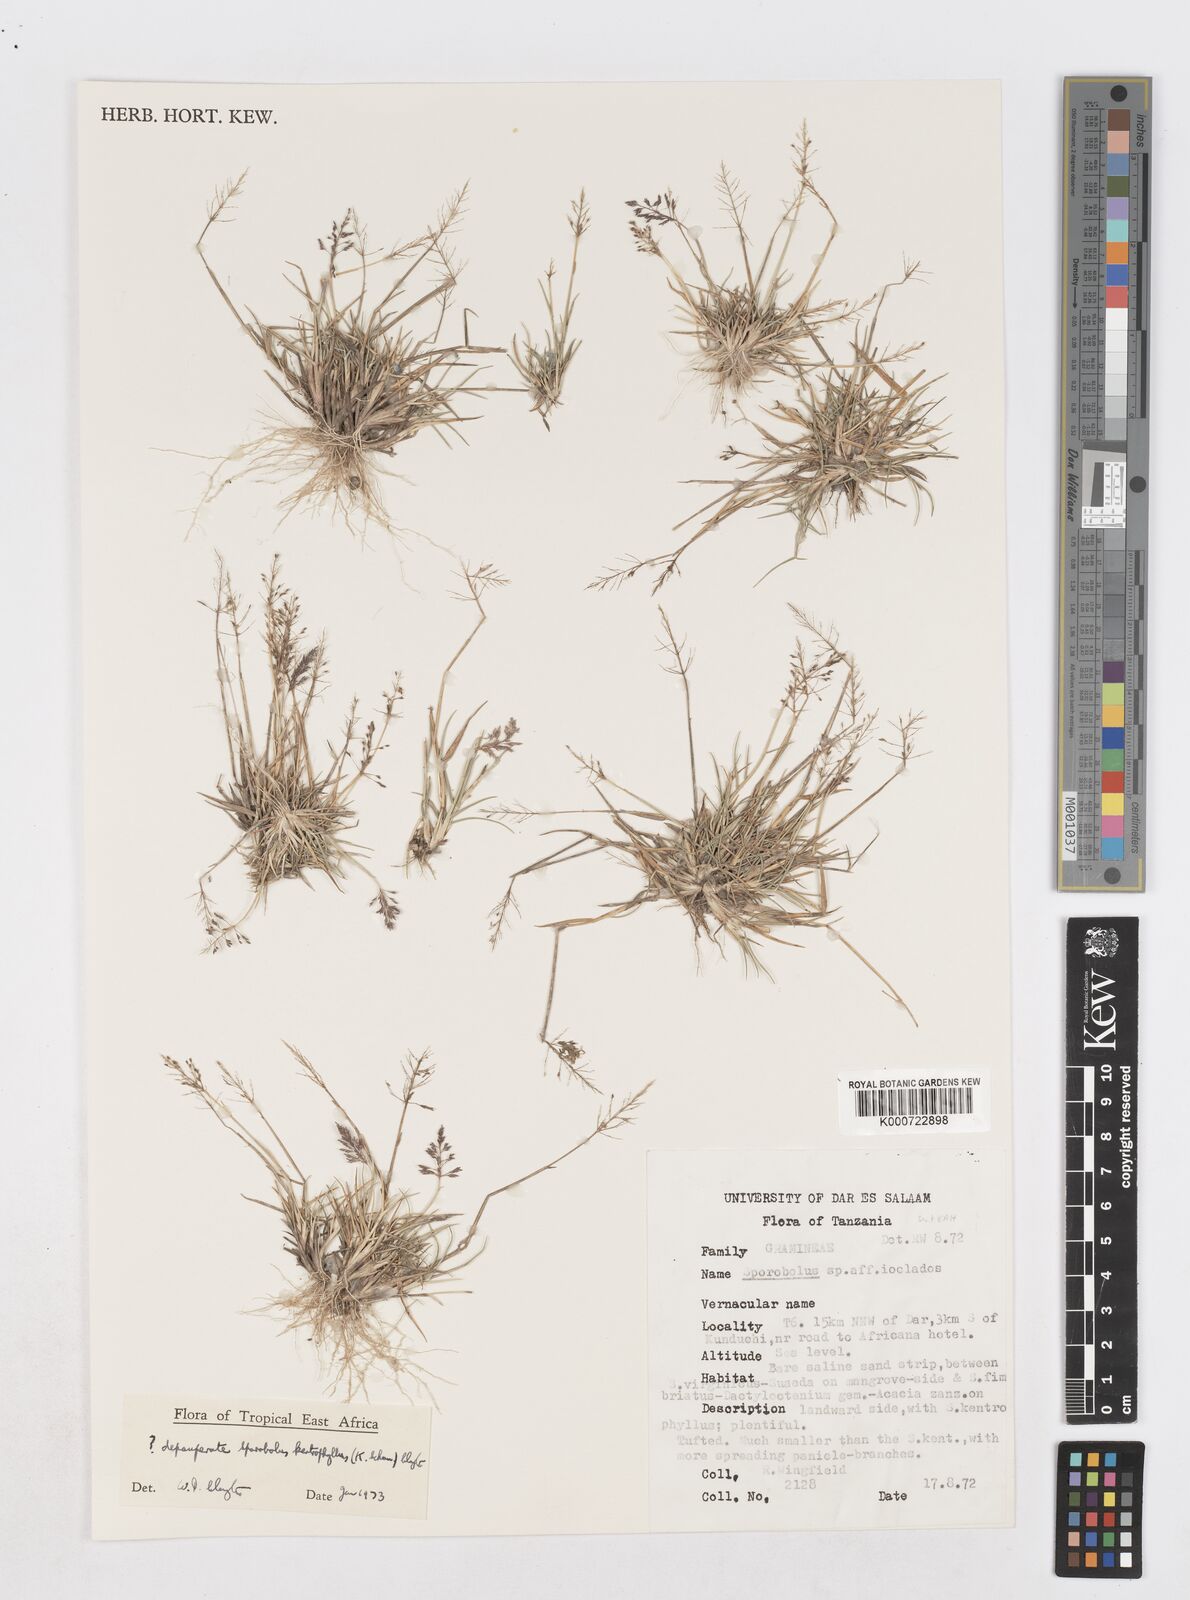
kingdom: Plantae
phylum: Tracheophyta
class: Liliopsida
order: Poales
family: Poaceae
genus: Sporobolus
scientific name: Sporobolus ioclados
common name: Pan dropseed
